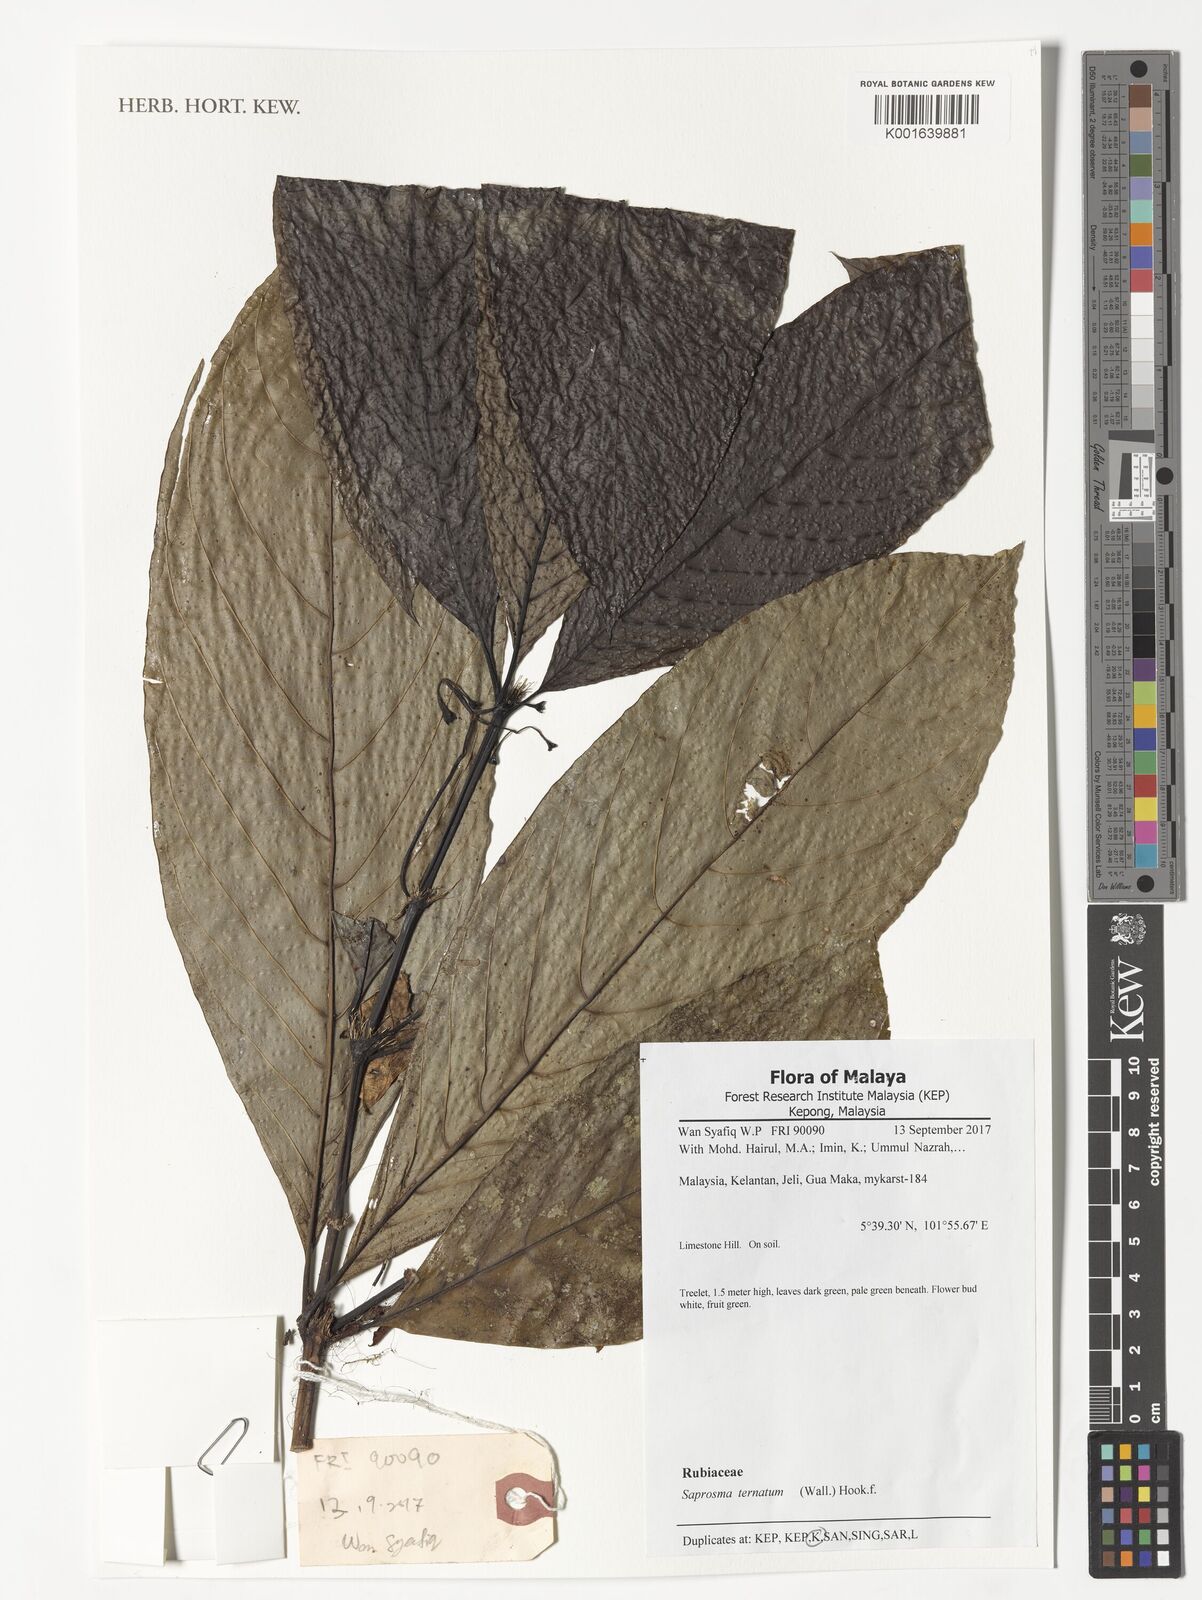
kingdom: Plantae
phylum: Tracheophyta
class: Magnoliopsida
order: Gentianales
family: Rubiaceae
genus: Saprosma
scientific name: Saprosma ternata
